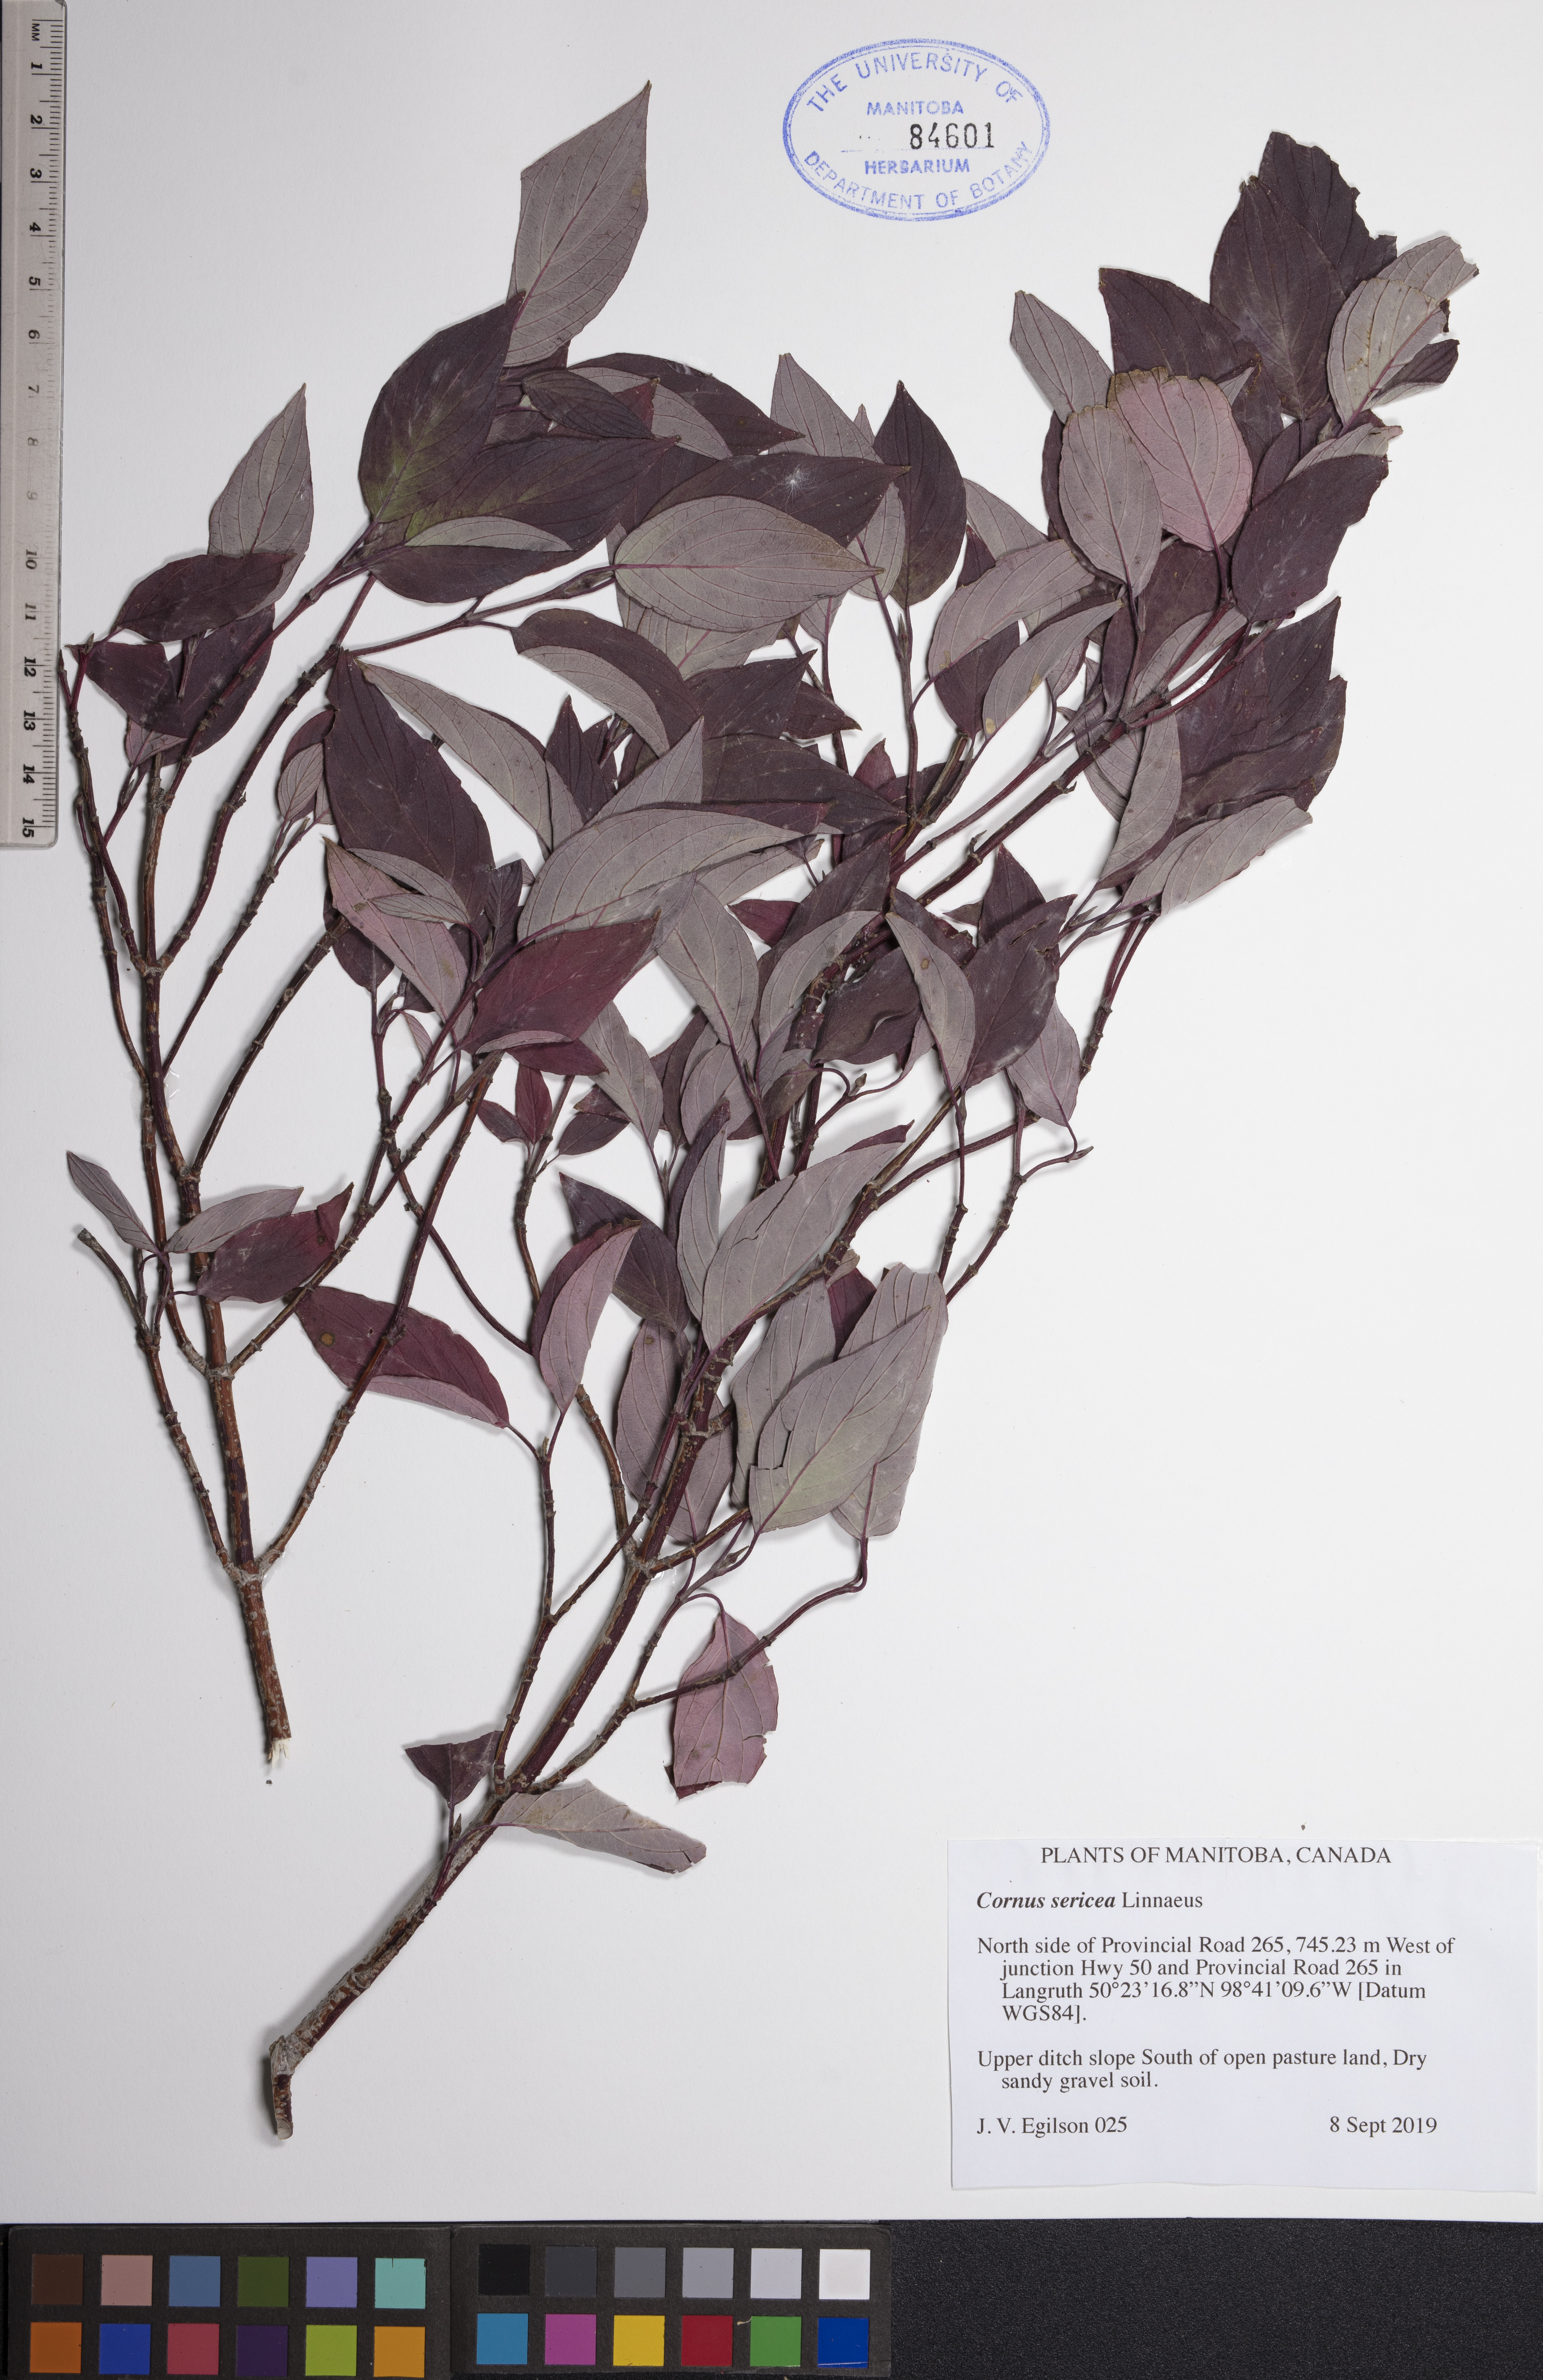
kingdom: Plantae
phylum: Tracheophyta
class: Magnoliopsida
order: Cornales
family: Cornaceae
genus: Cornus
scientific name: Cornus sericea
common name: Red-osier dogwood
